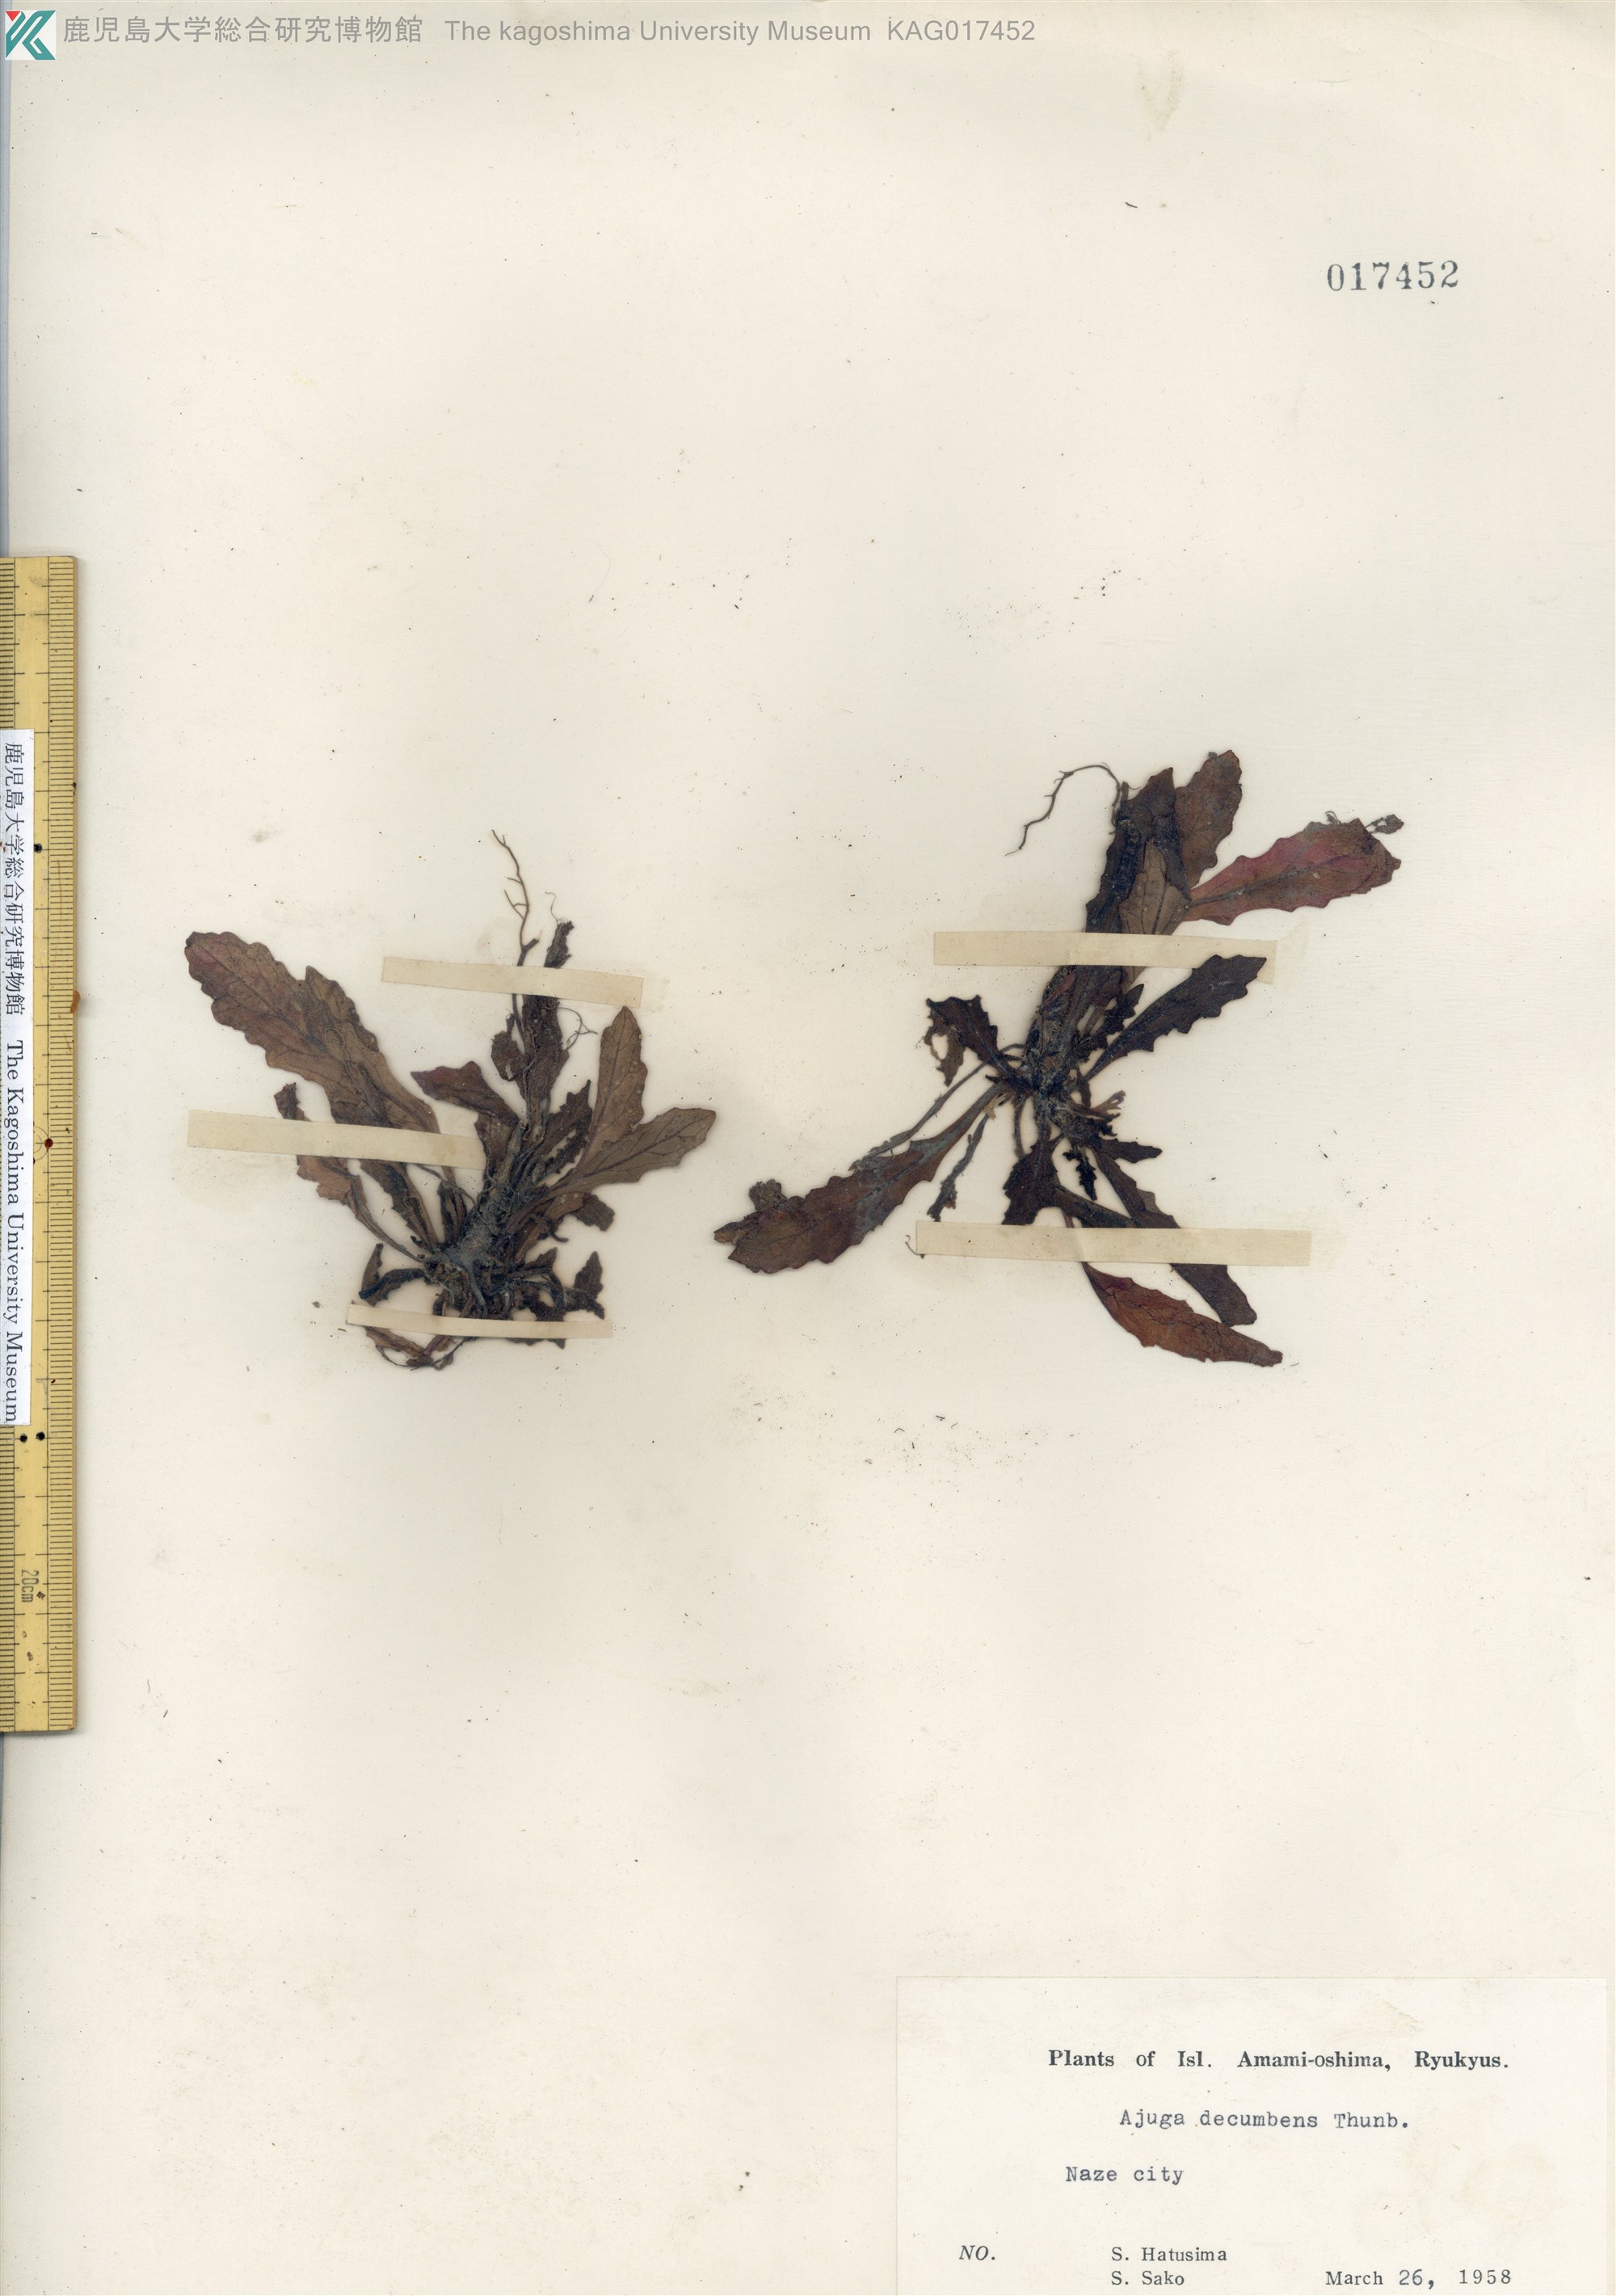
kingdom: Plantae
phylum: Tracheophyta
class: Magnoliopsida
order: Lamiales
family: Lamiaceae
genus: Ajuga
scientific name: Ajuga decumbens
